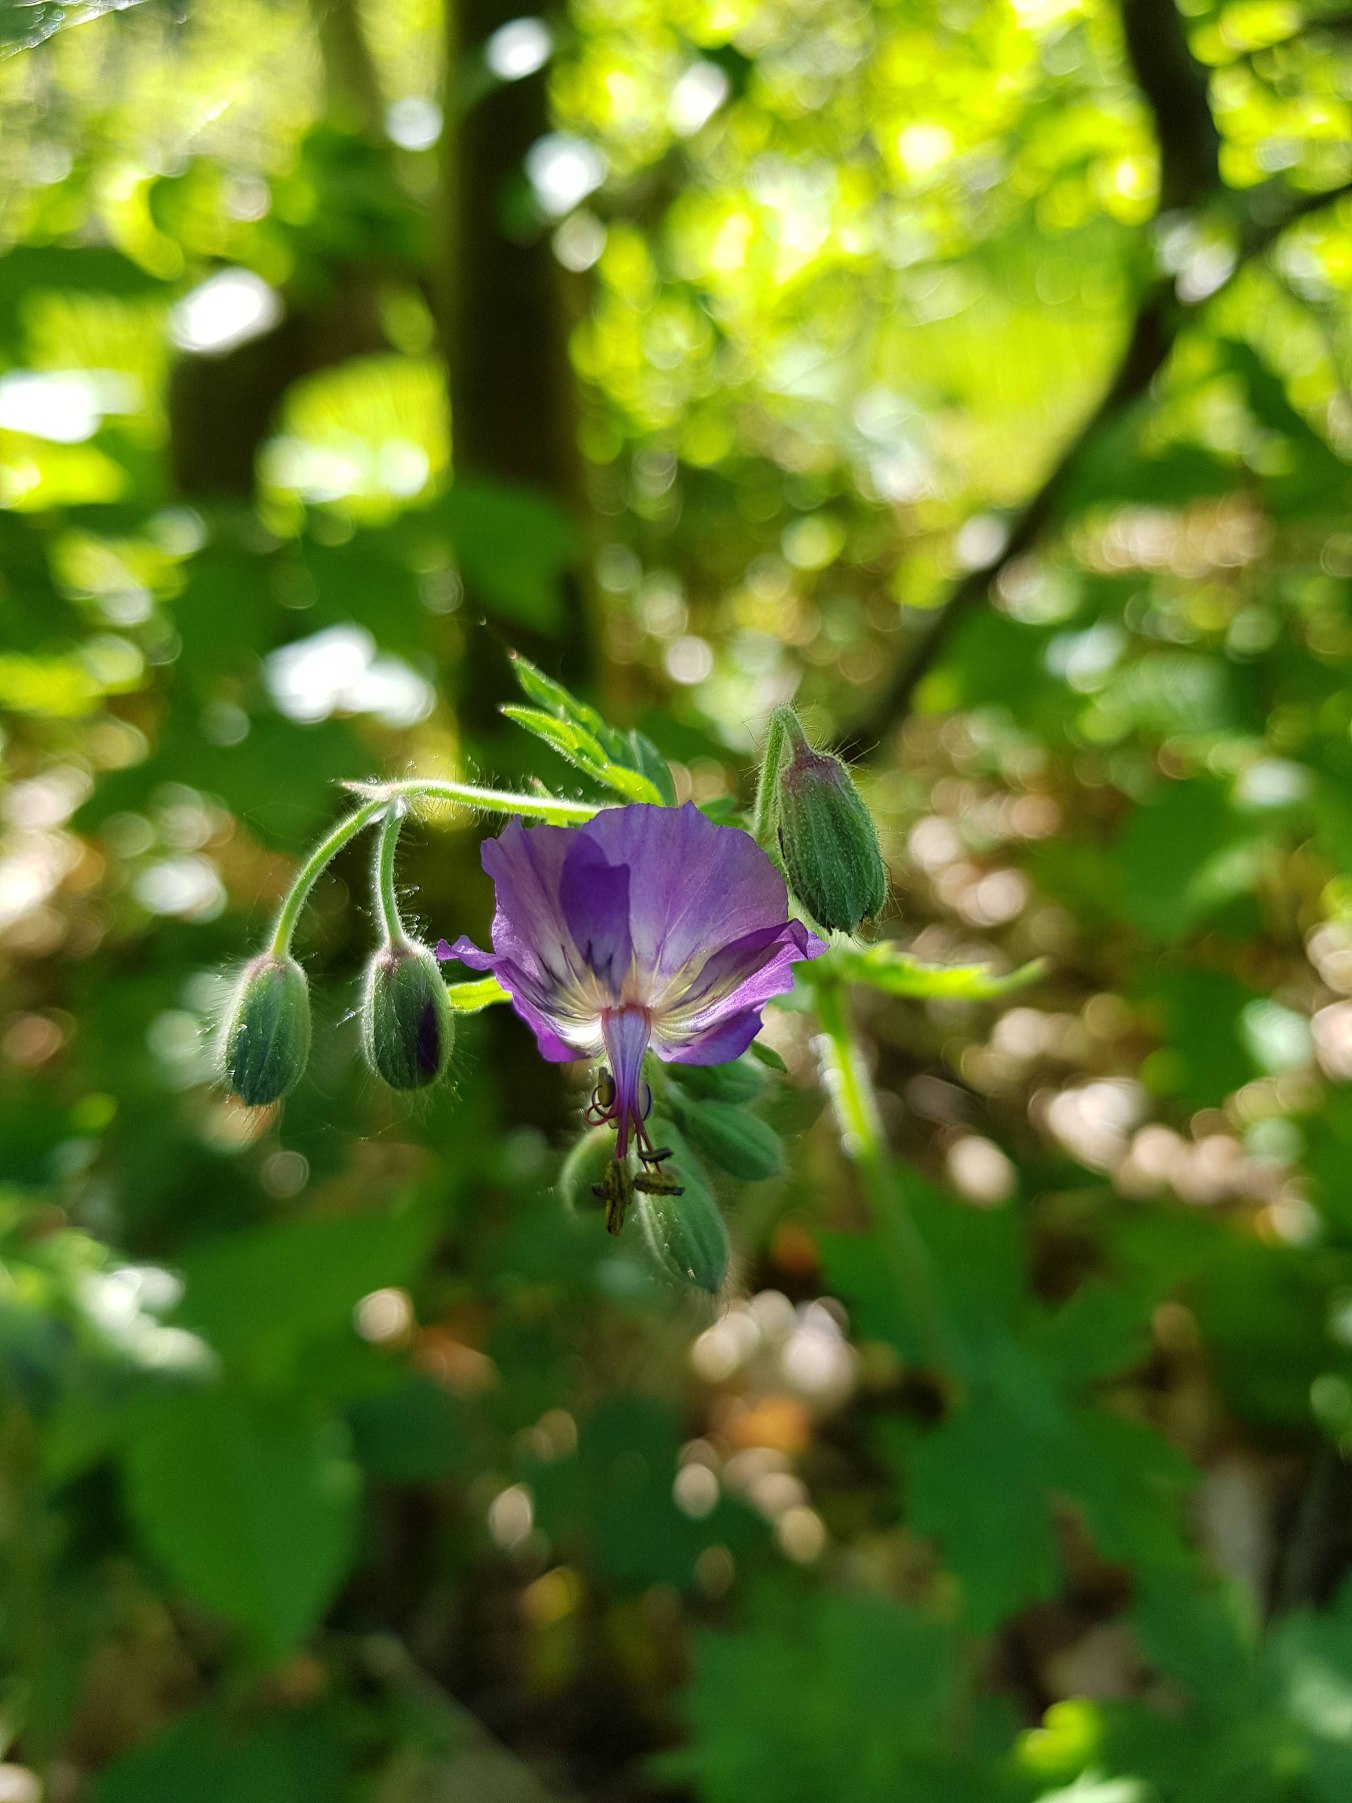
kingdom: Plantae
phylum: Tracheophyta
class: Magnoliopsida
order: Geraniales
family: Geraniaceae
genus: Geranium
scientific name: Geranium phaeum
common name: Bølgekronet storkenæb
